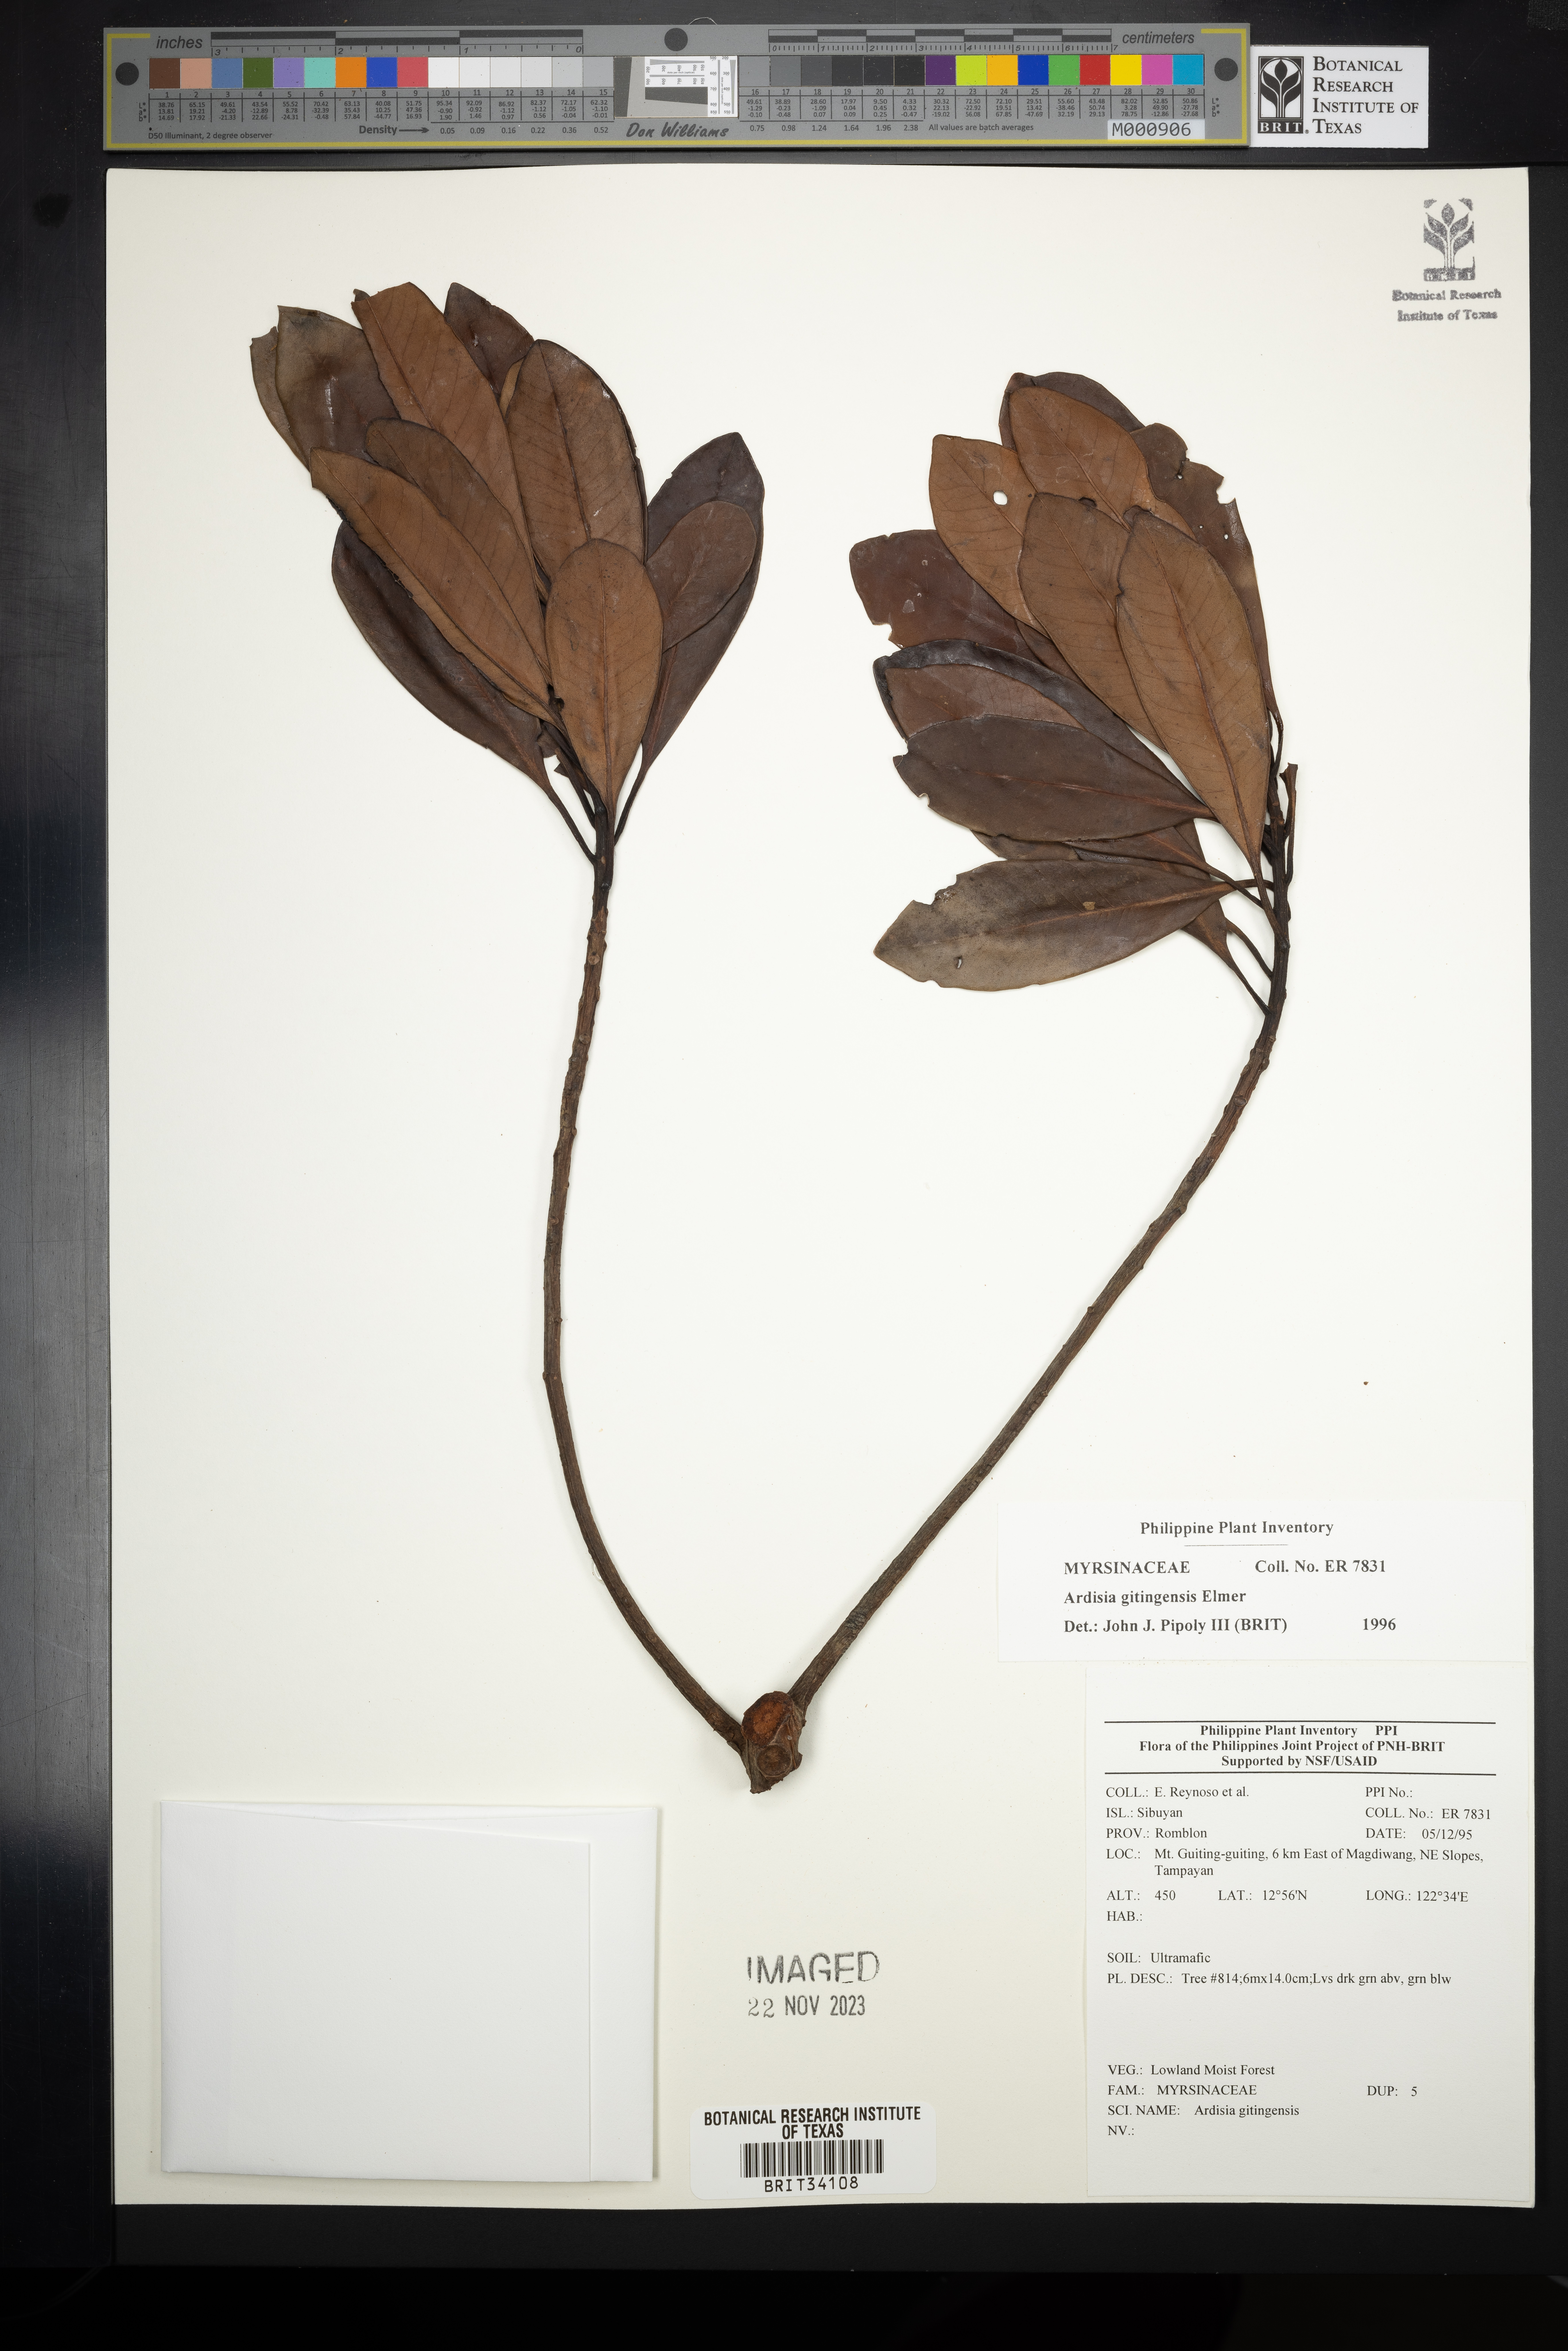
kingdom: Plantae
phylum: Tracheophyta
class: Magnoliopsida
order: Ericales
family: Primulaceae
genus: Ardisia
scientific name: Ardisia darlingii
